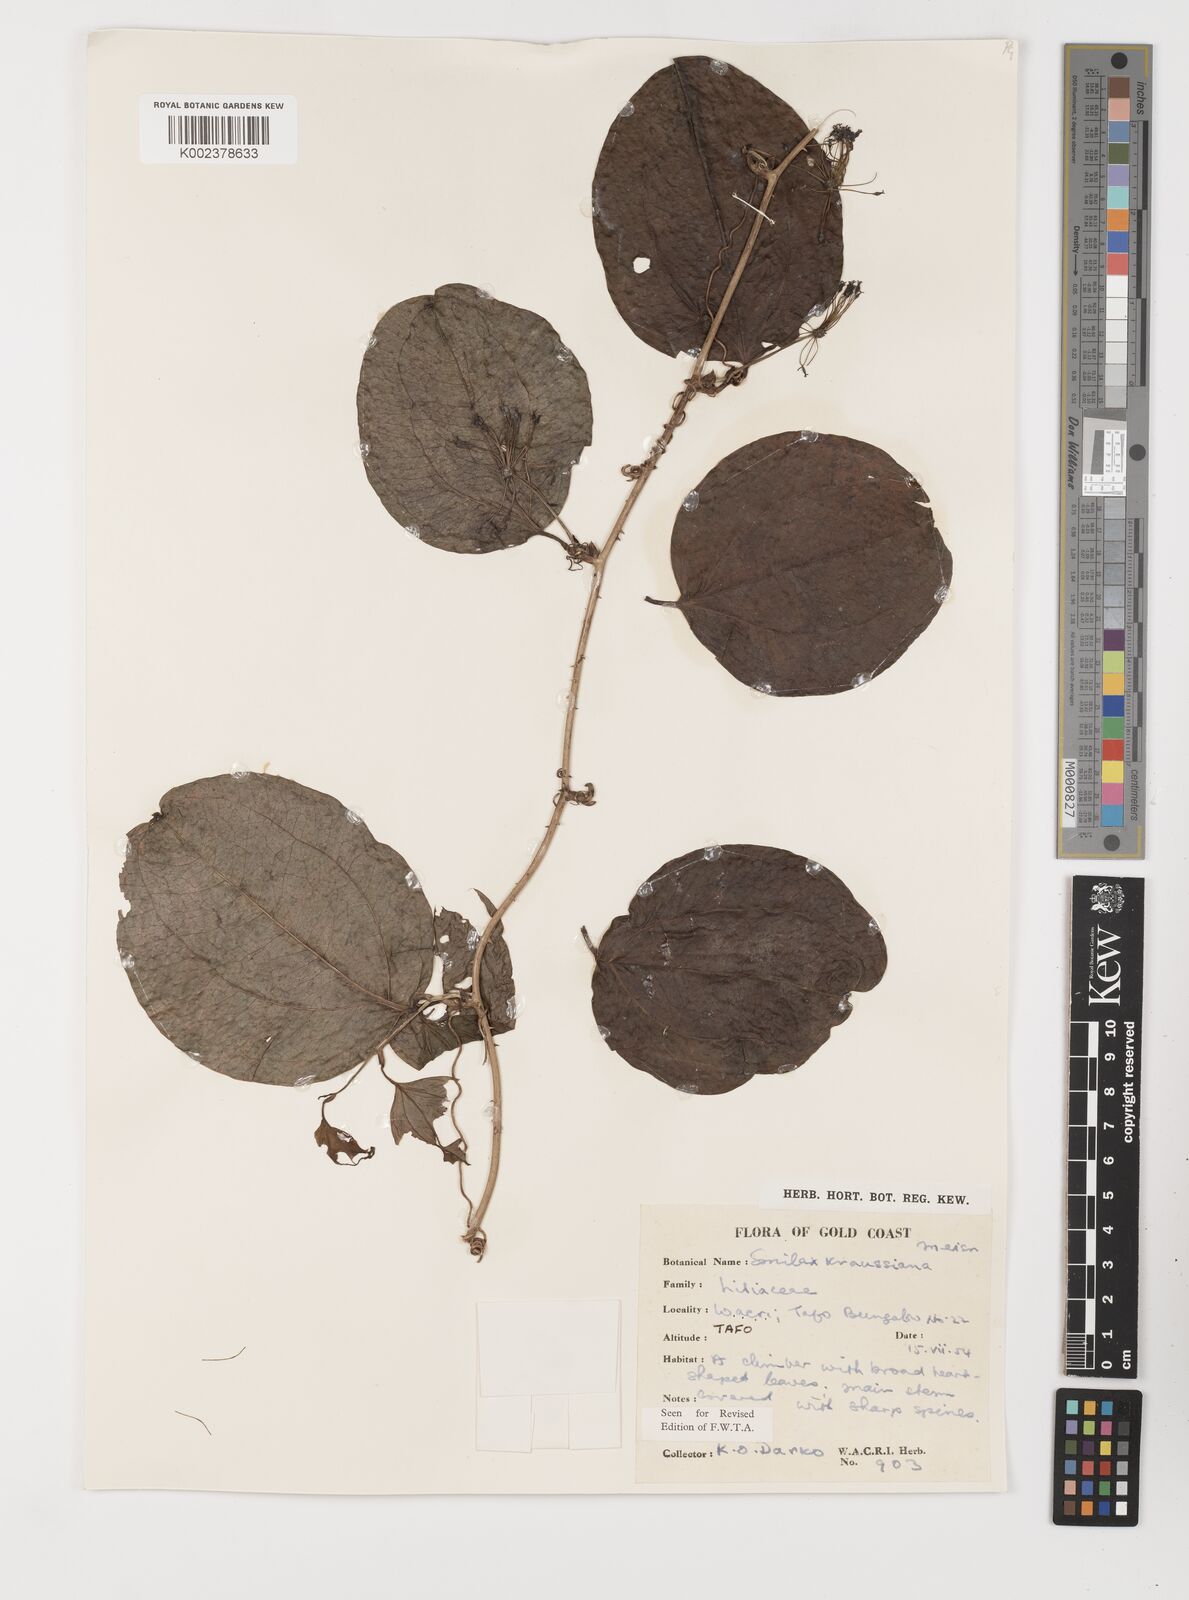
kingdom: Plantae
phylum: Tracheophyta
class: Liliopsida
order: Liliales
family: Smilacaceae
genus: Smilax
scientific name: Smilax anceps
